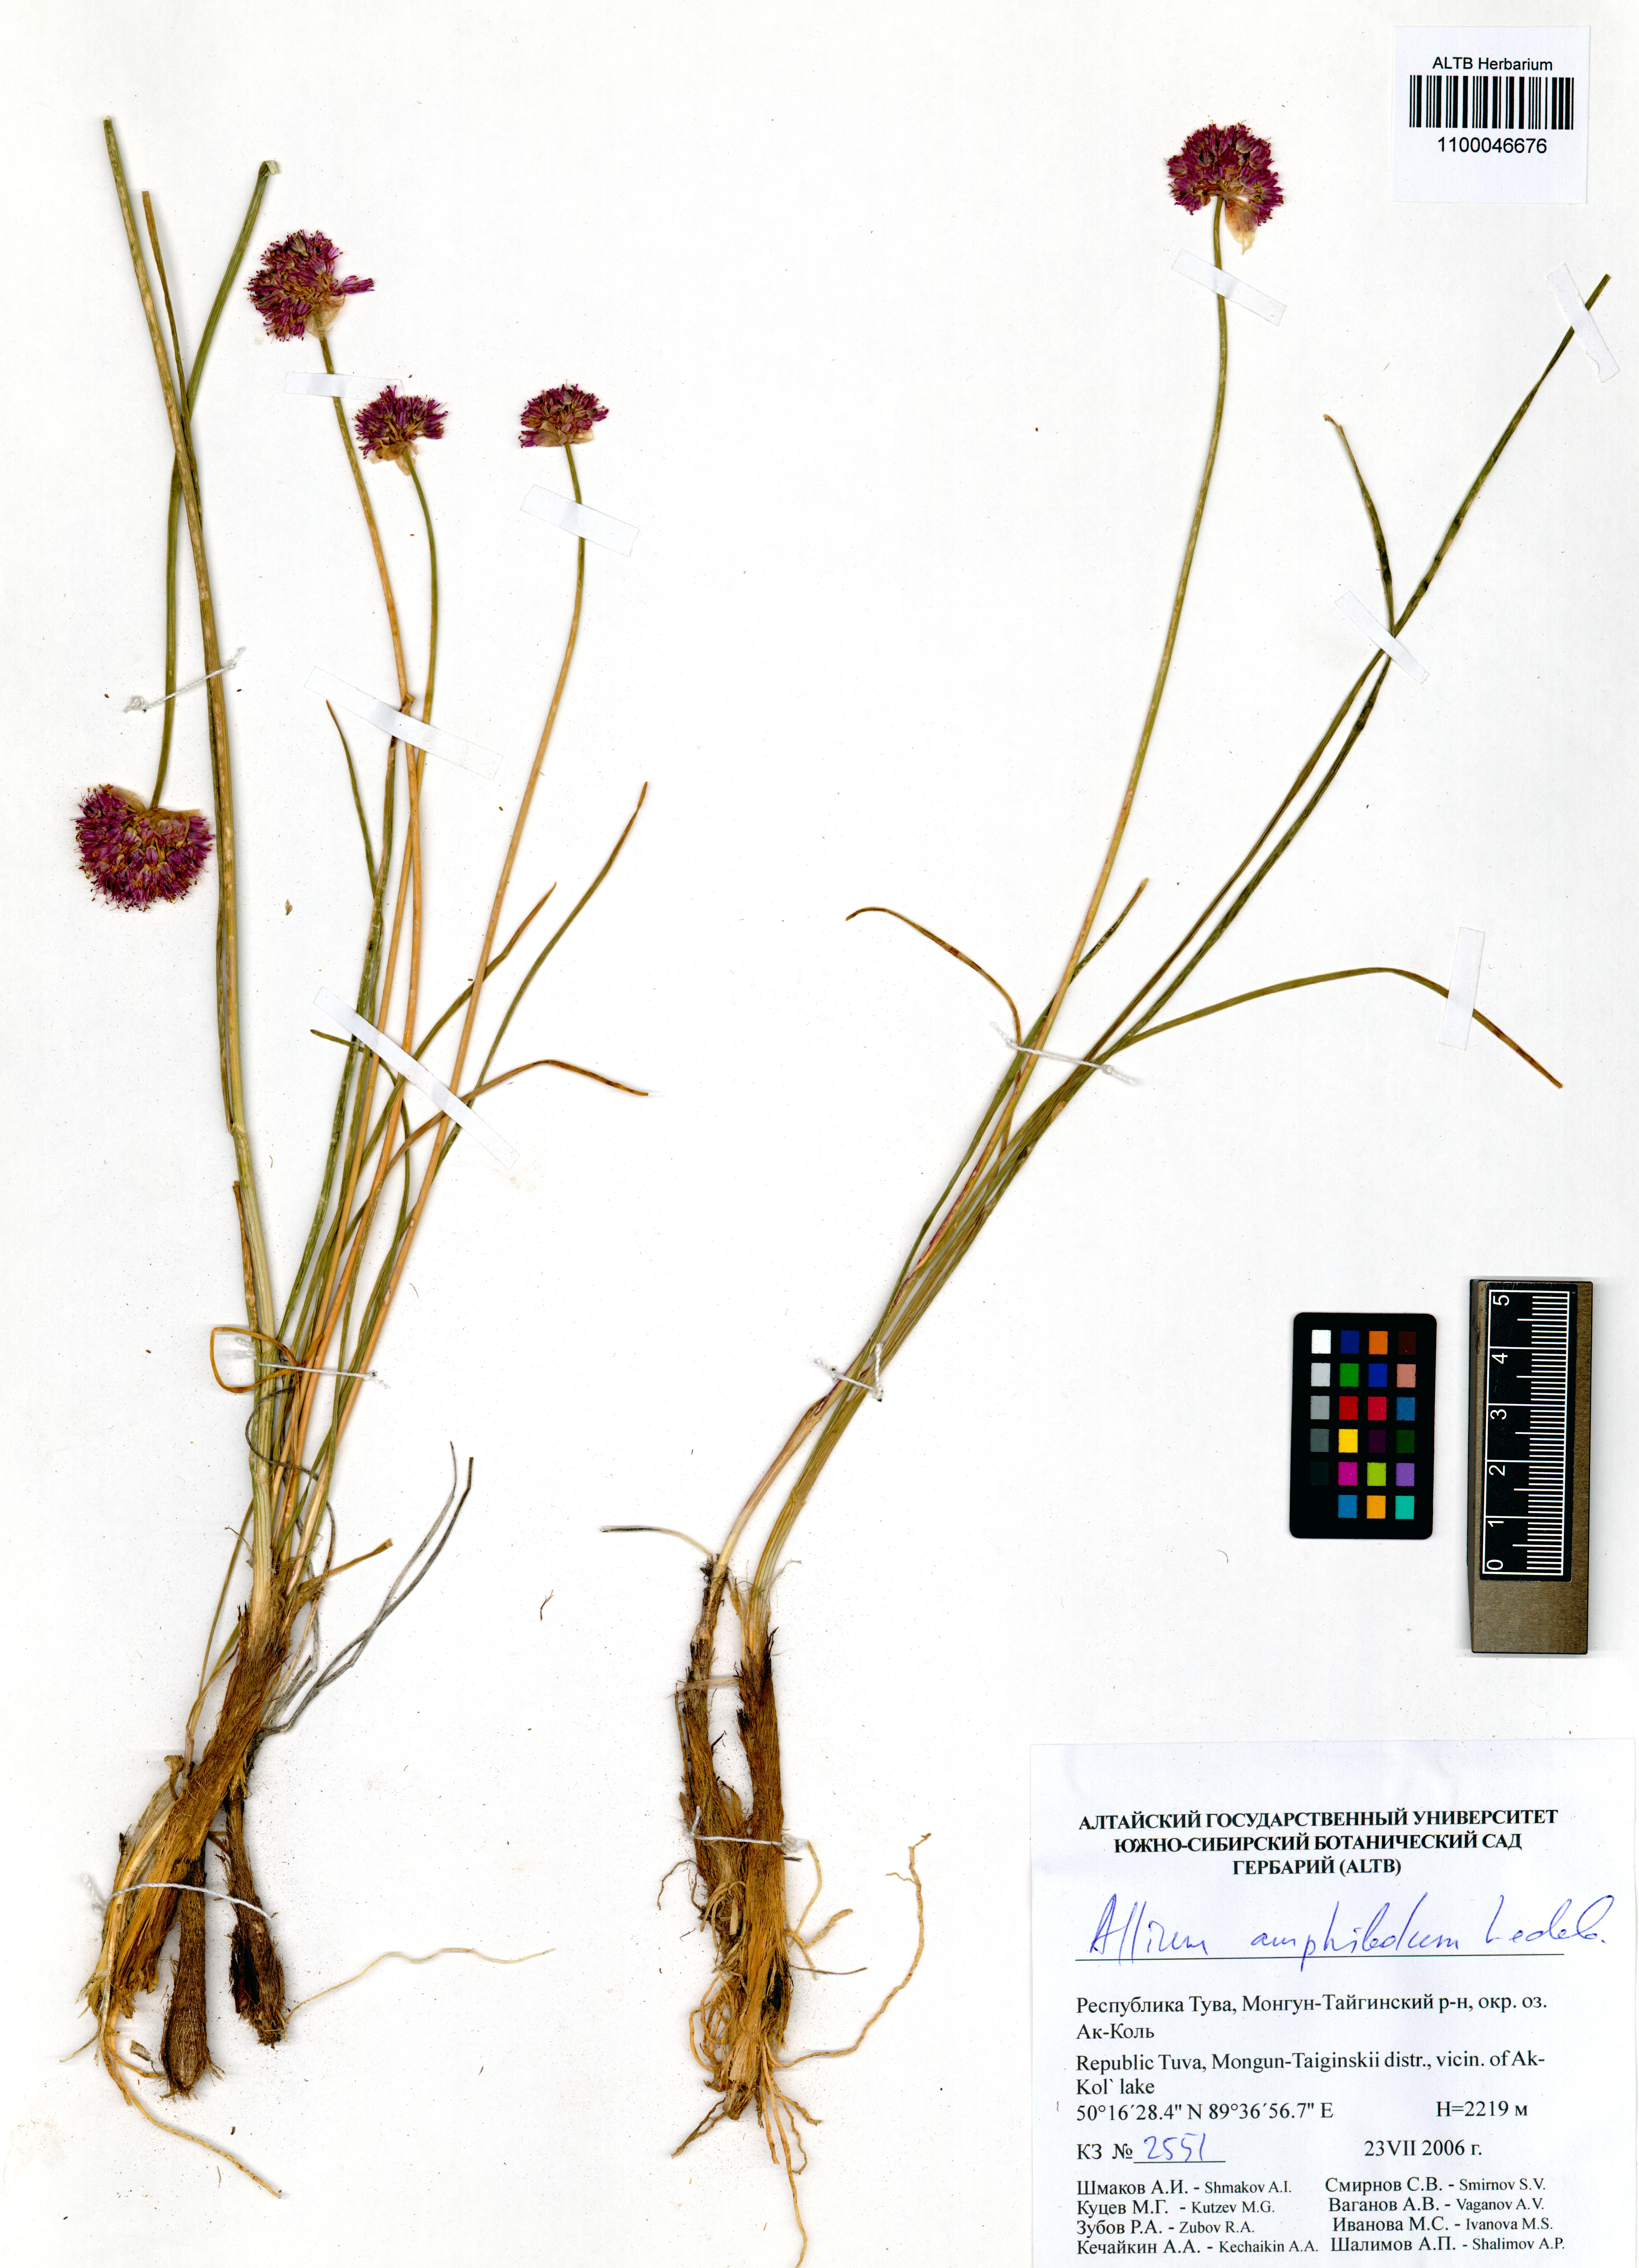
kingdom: Plantae
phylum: Tracheophyta
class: Liliopsida
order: Asparagales
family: Amaryllidaceae
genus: Allium
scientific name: Allium amphibolum
